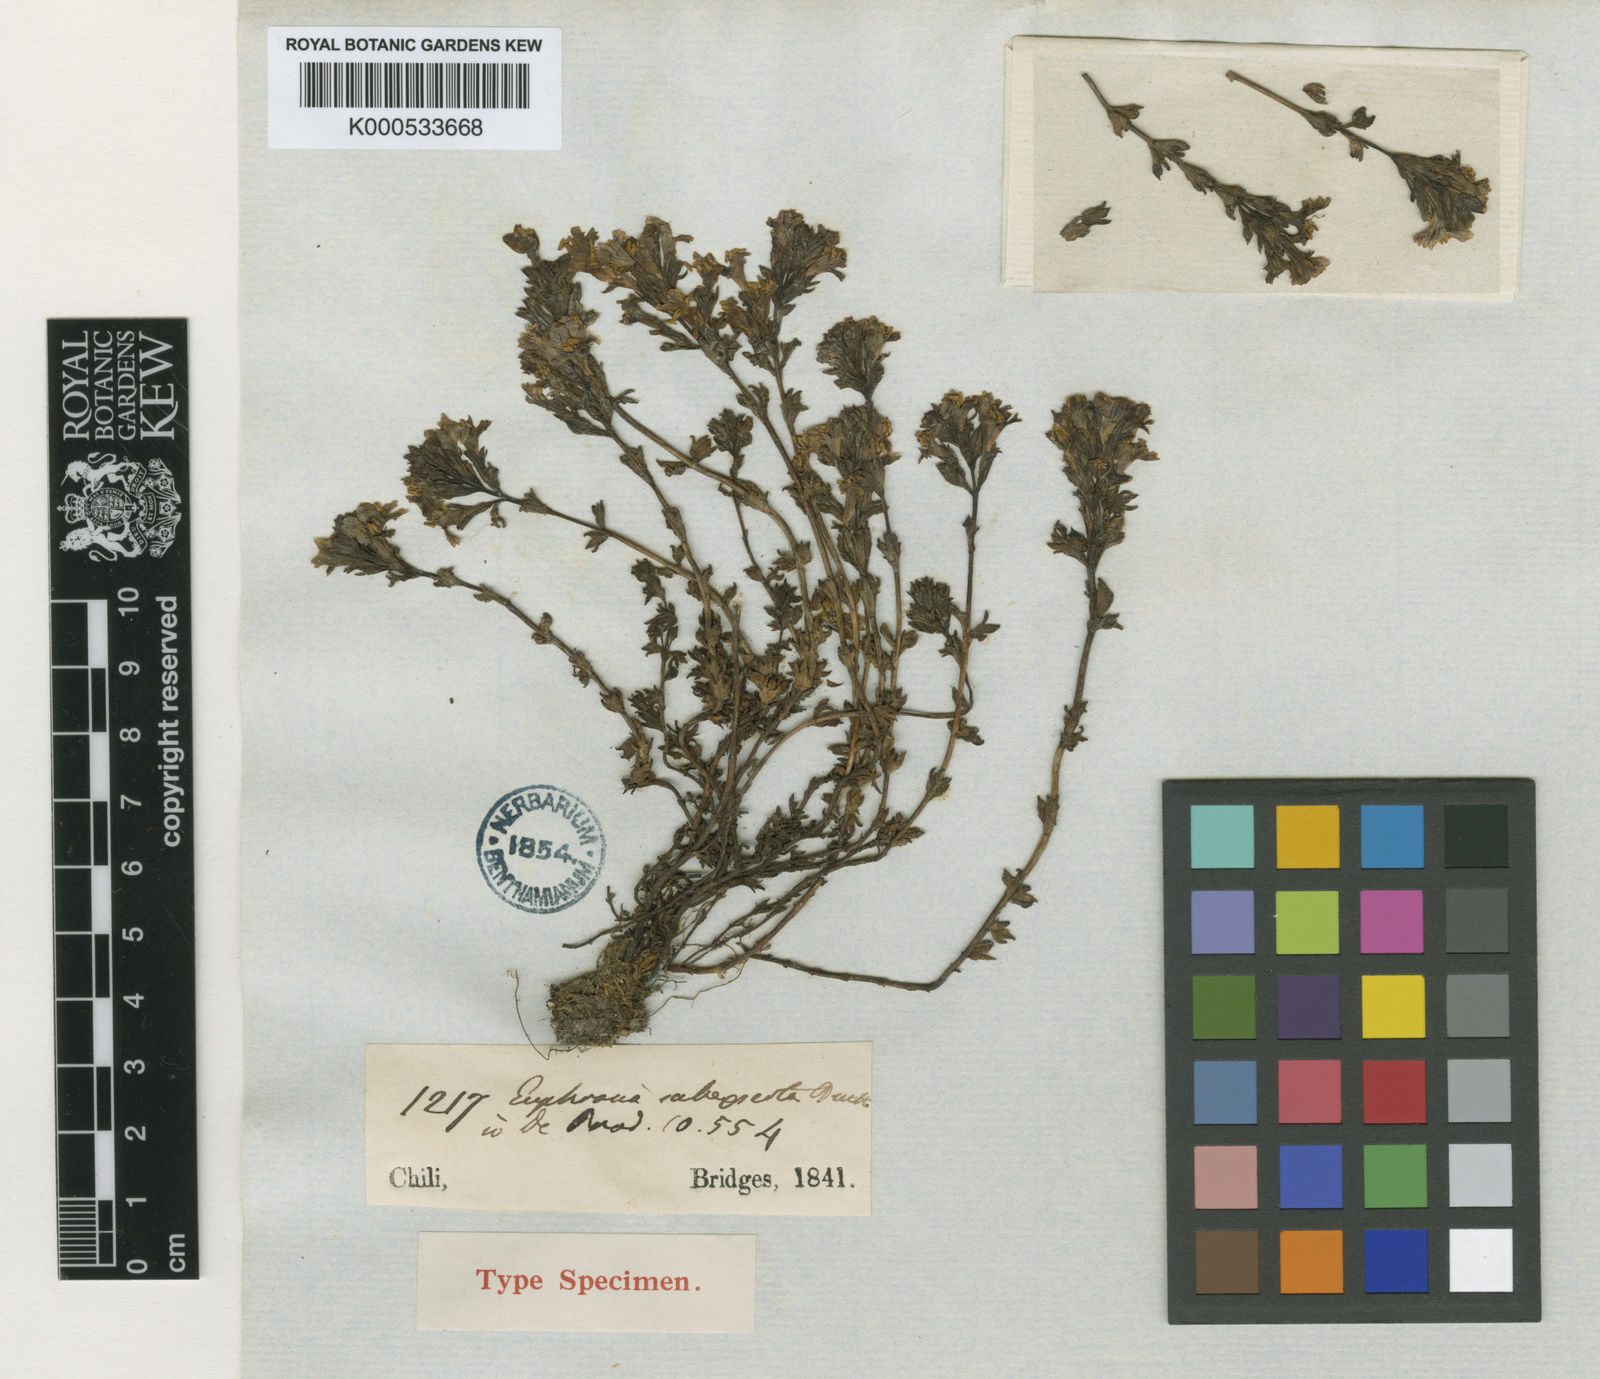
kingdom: Plantae
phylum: Tracheophyta
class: Magnoliopsida
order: Lamiales
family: Orobanchaceae
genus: Euphrasia
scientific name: Euphrasia subexserta
